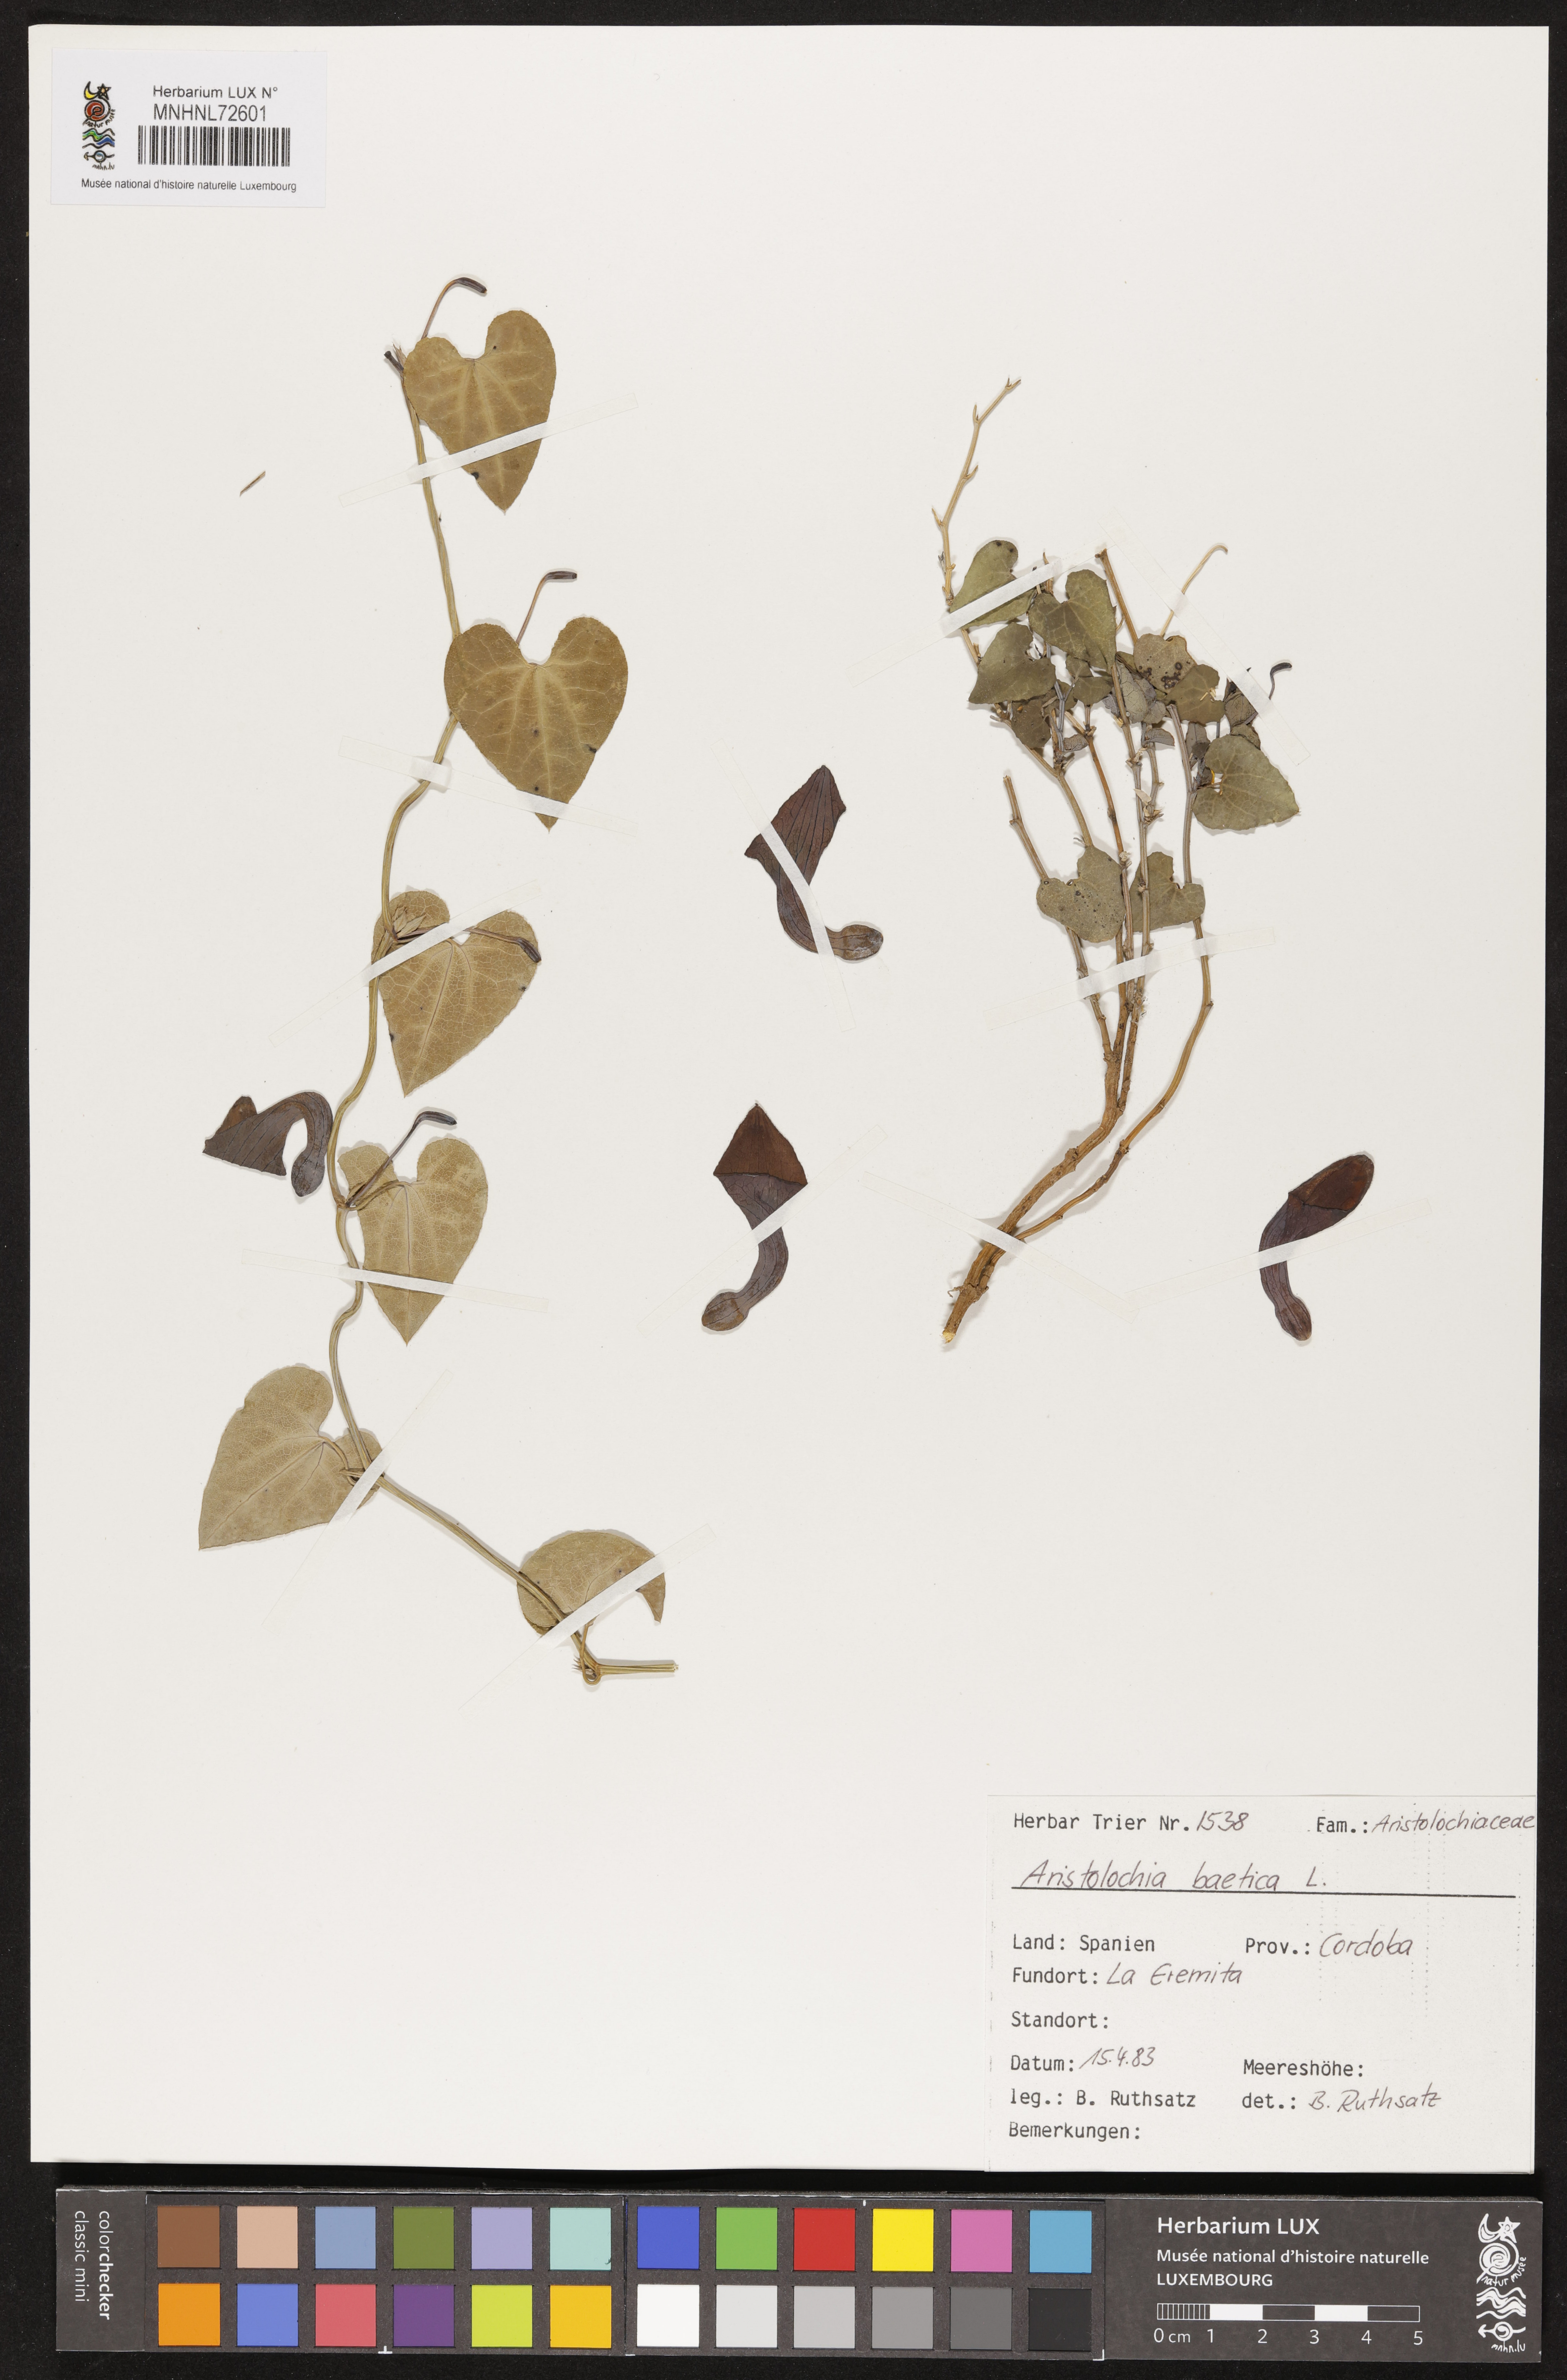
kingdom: Plantae
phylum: Tracheophyta
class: Magnoliopsida
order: Piperales
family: Aristolochiaceae
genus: Aristolochia
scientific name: Aristolochia baetica
